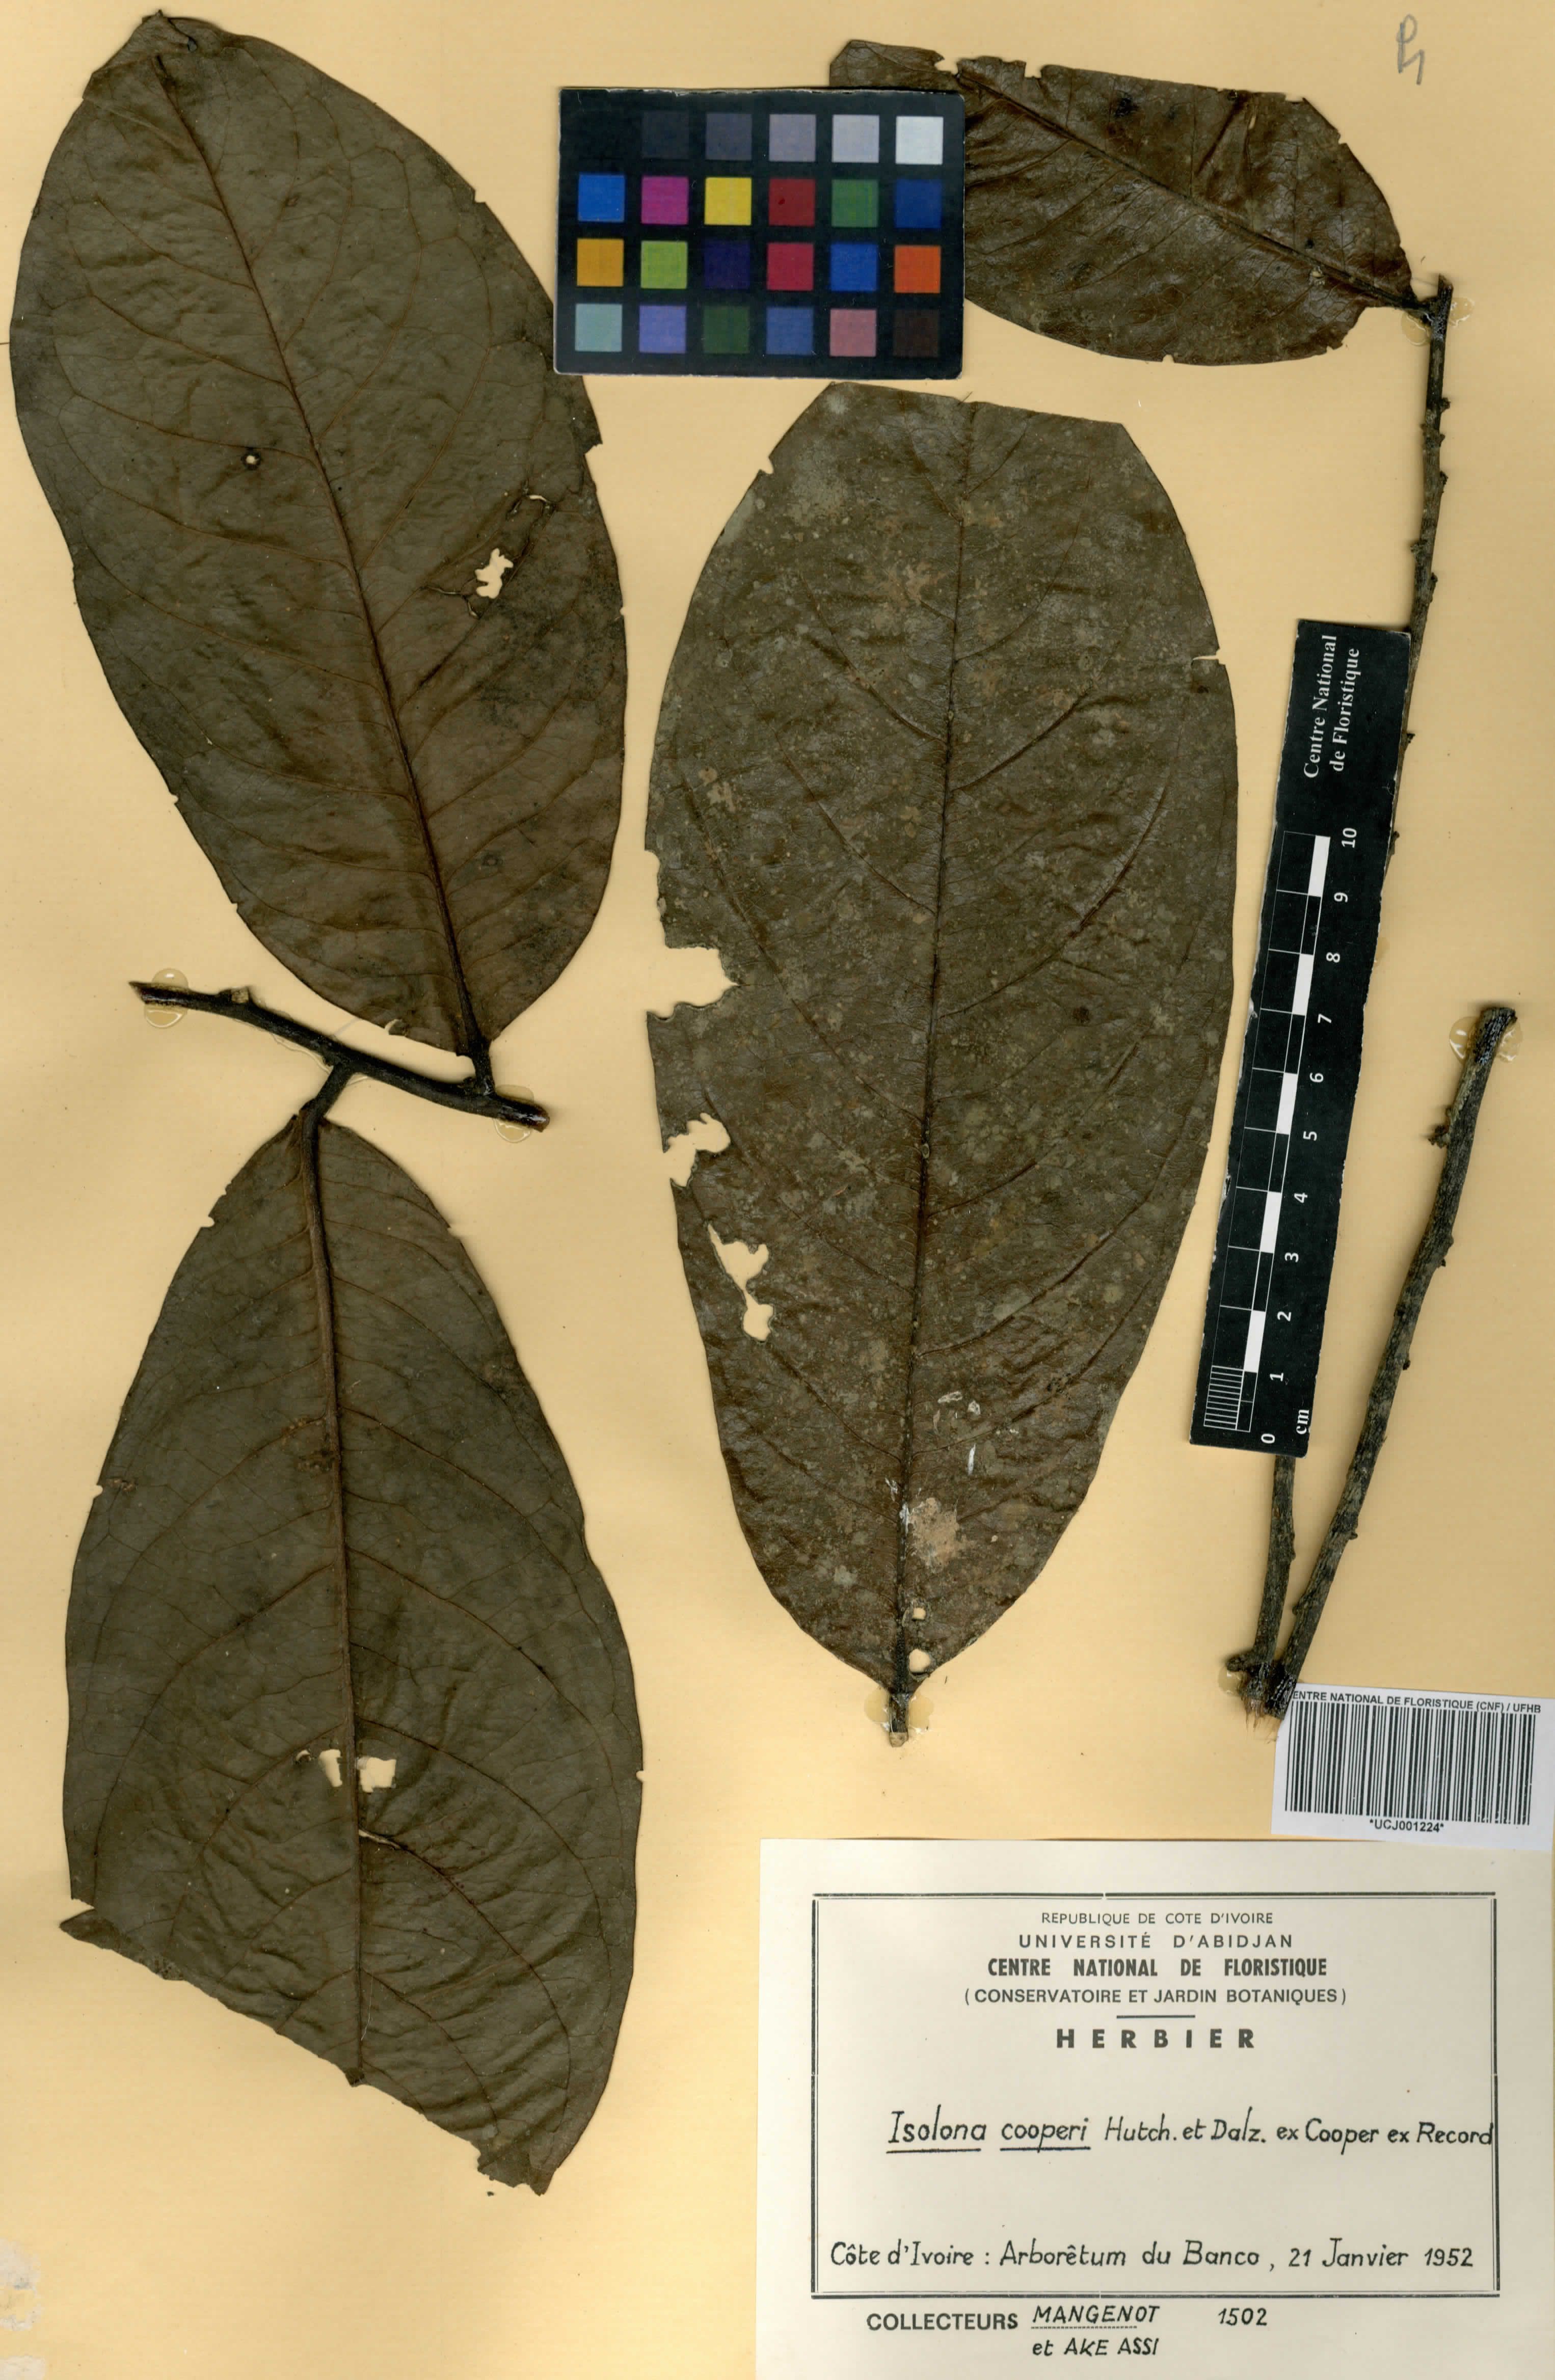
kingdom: Plantae
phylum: Tracheophyta
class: Magnoliopsida
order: Magnoliales
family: Annonaceae
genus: Isolona
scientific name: Isolona cooperi
